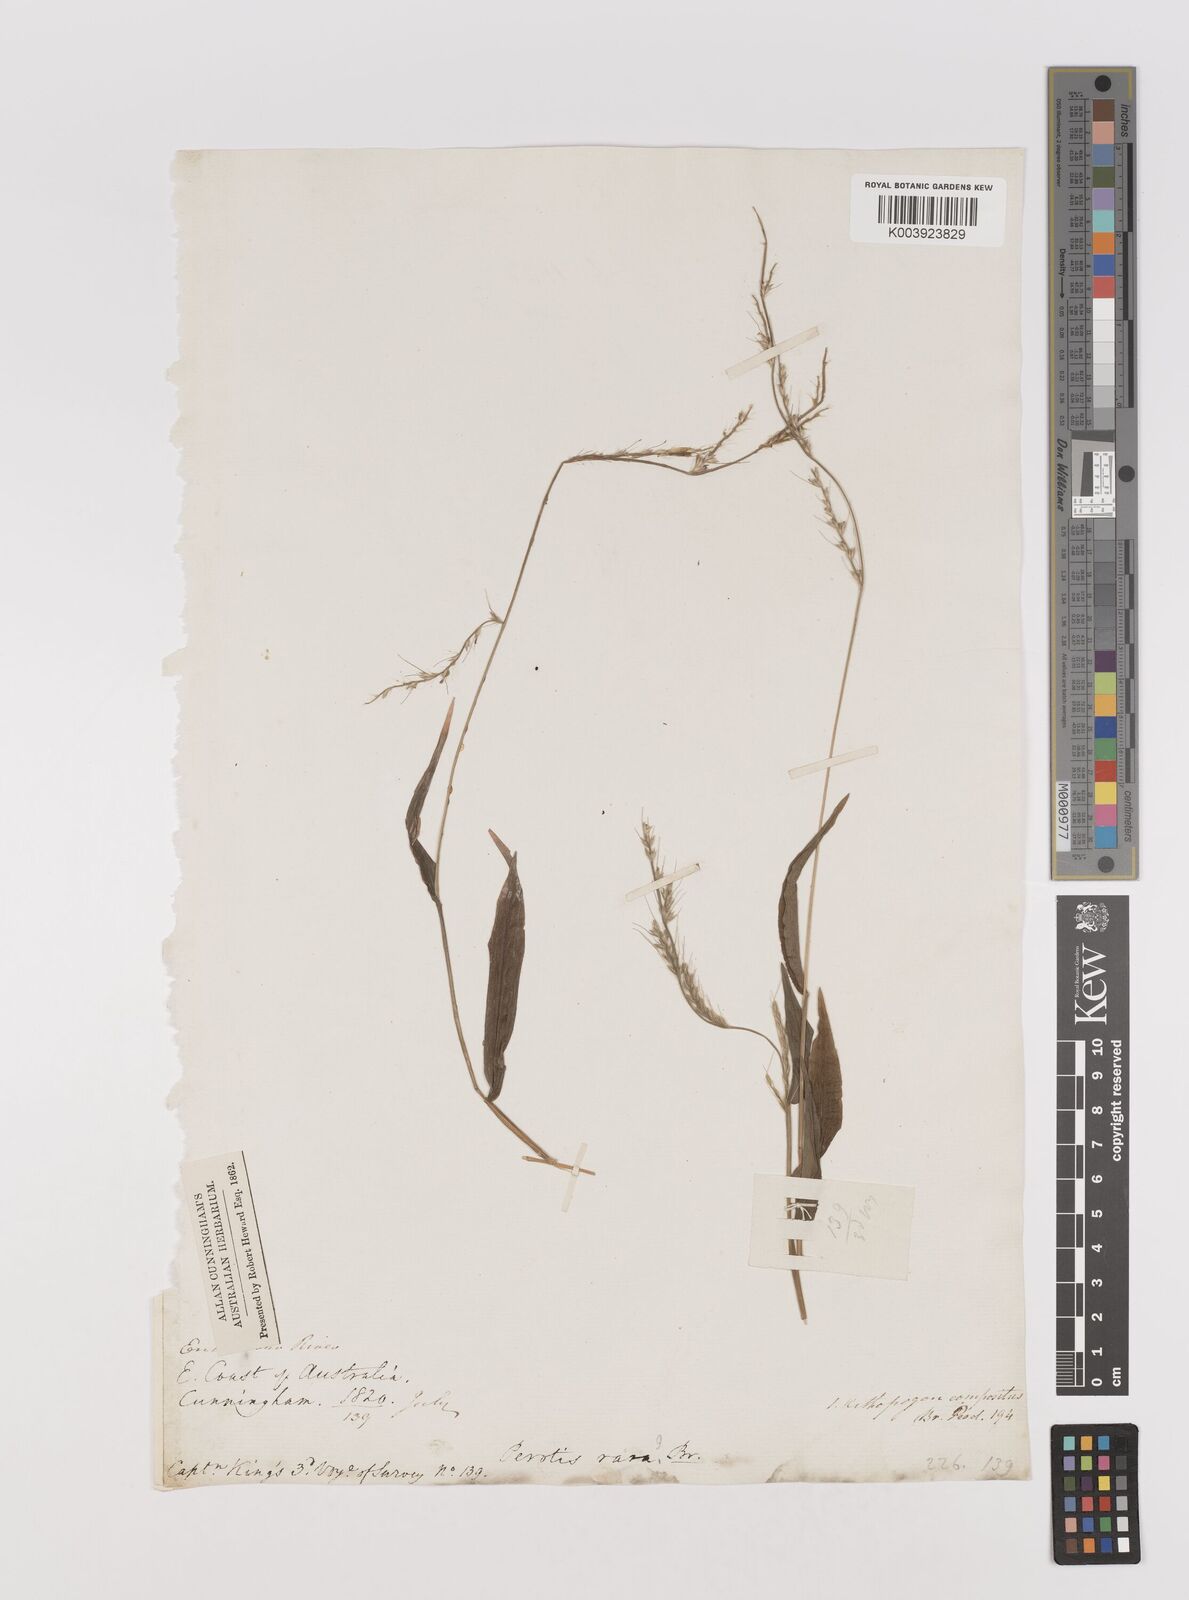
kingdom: Plantae
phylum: Tracheophyta
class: Liliopsida
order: Poales
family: Poaceae
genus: Oplismenus
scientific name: Oplismenus compositus
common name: Running mountain grass
